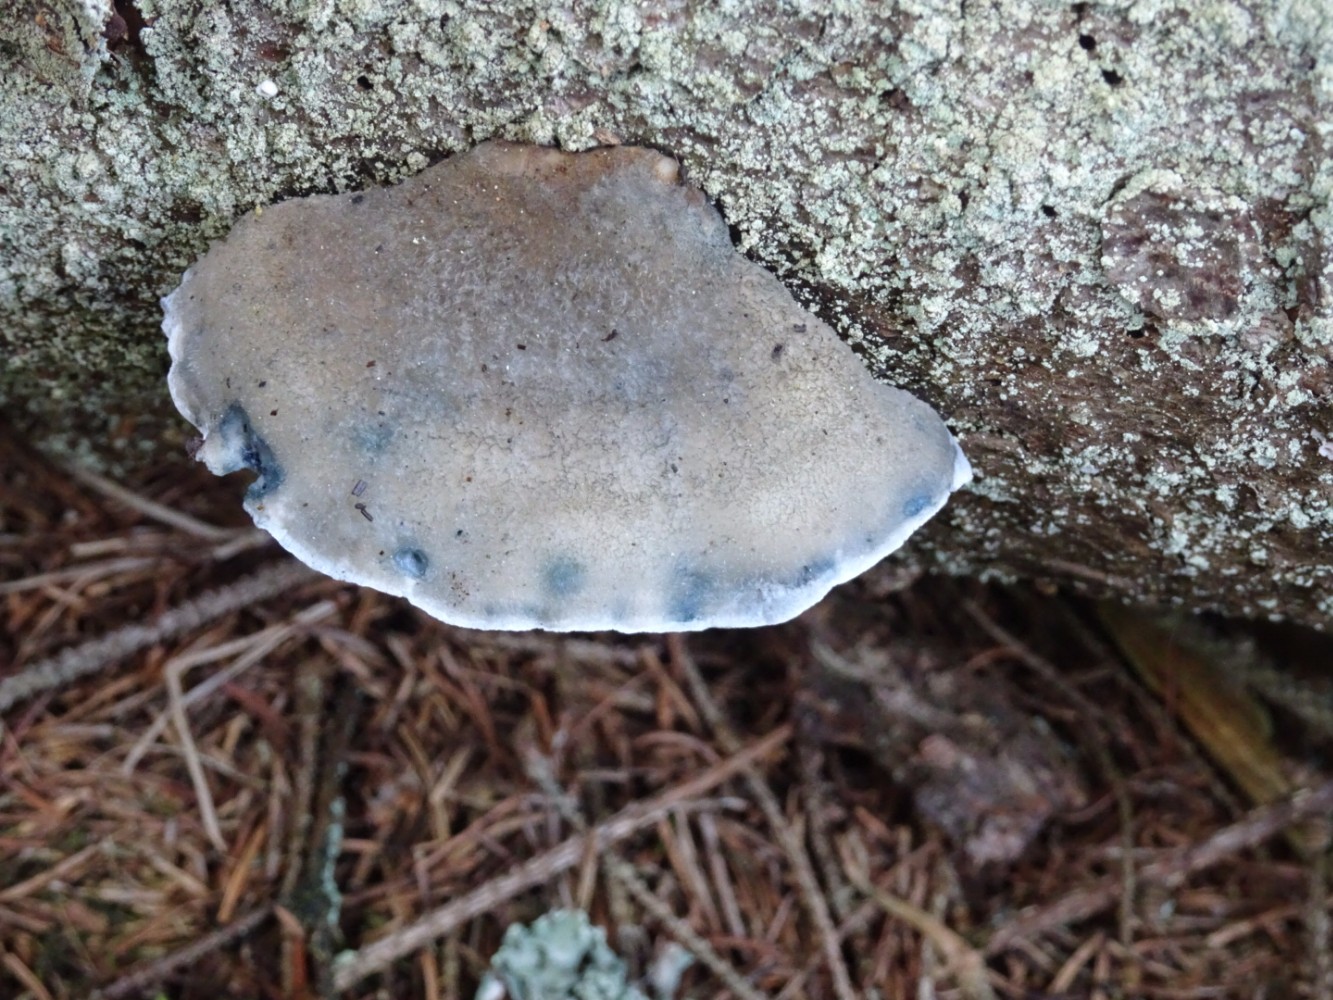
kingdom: Fungi
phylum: Basidiomycota
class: Agaricomycetes
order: Polyporales
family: Polyporaceae
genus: Cyanosporus
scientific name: Cyanosporus caesius
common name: blålig kødporesvamp
